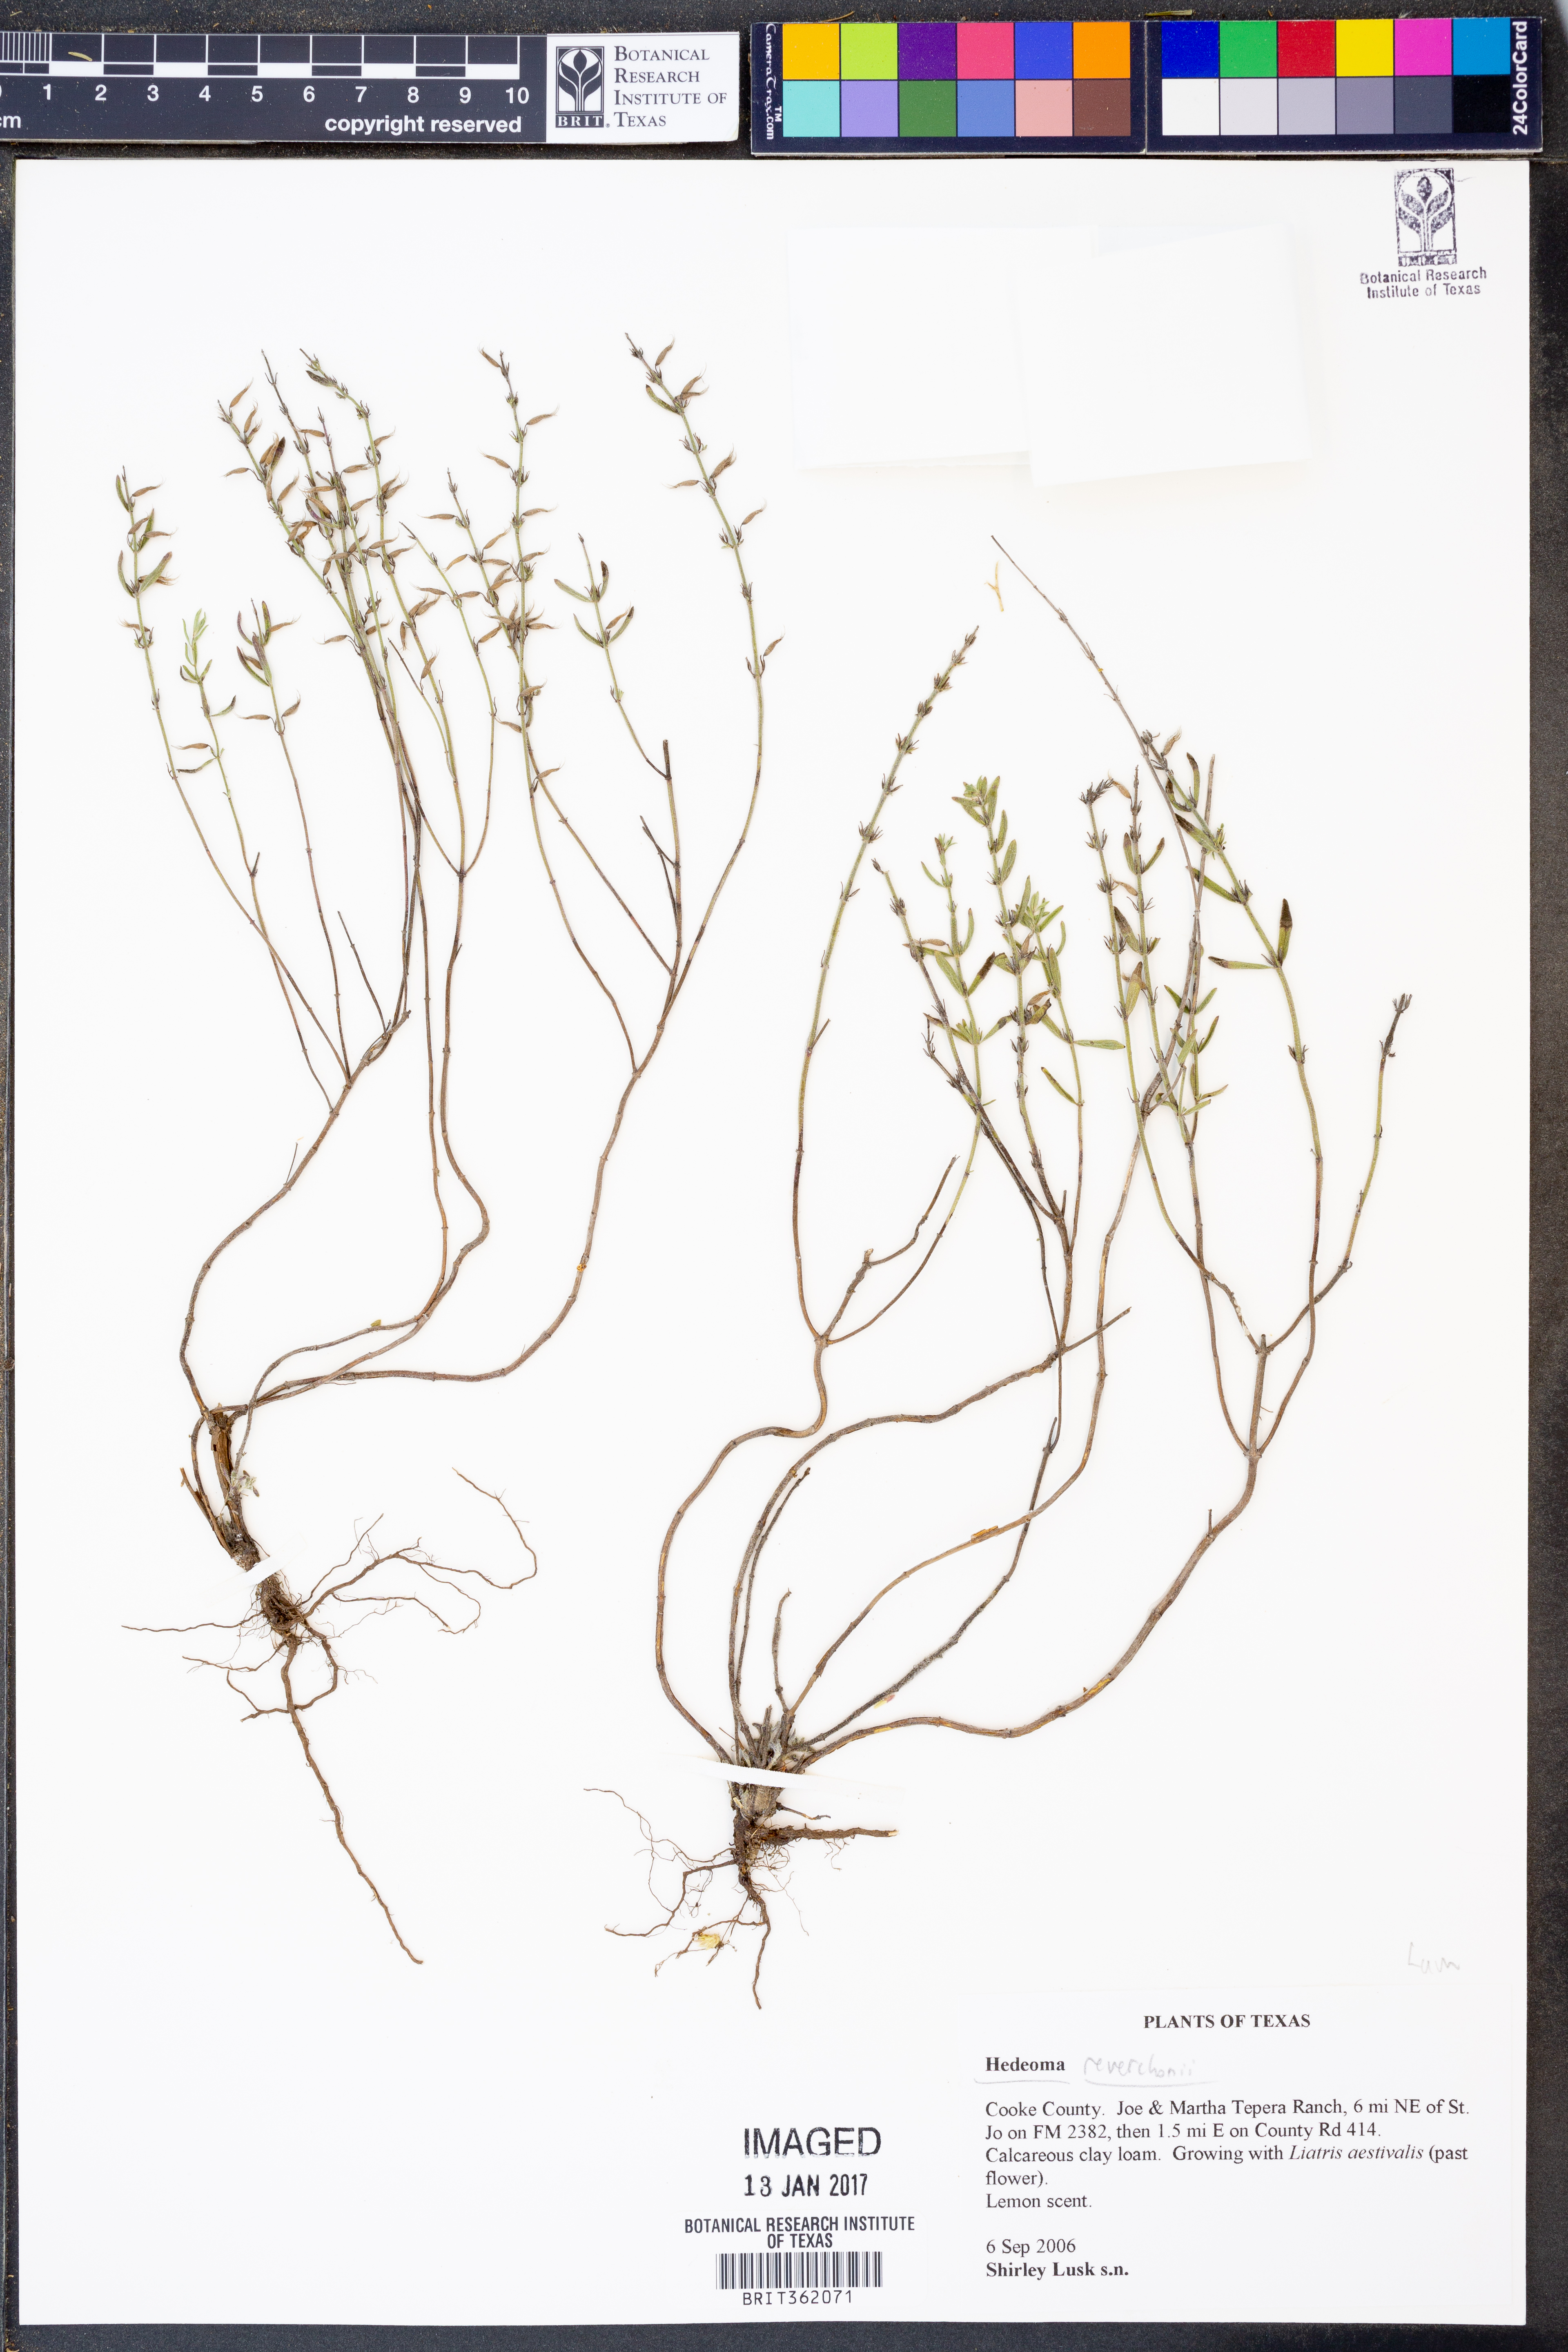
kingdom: Plantae
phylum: Tracheophyta
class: Magnoliopsida
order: Lamiales
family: Lamiaceae
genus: Hedeoma
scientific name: Hedeoma reverchonii
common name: Reverchon's false penny-royal
